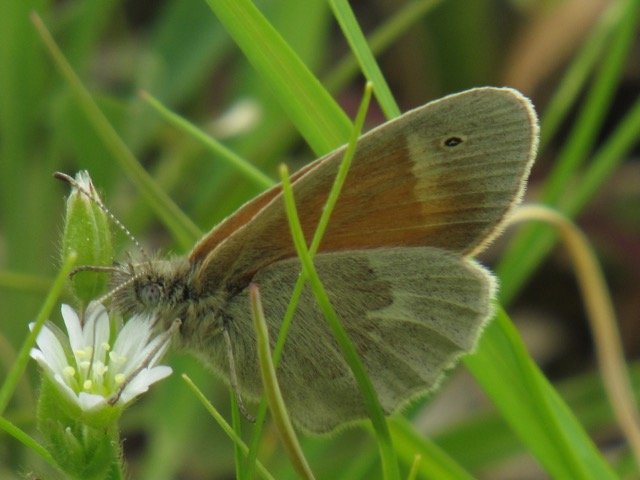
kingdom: Animalia
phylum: Arthropoda
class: Insecta
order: Lepidoptera
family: Nymphalidae
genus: Coenonympha
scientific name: Coenonympha tullia
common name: Large Heath
